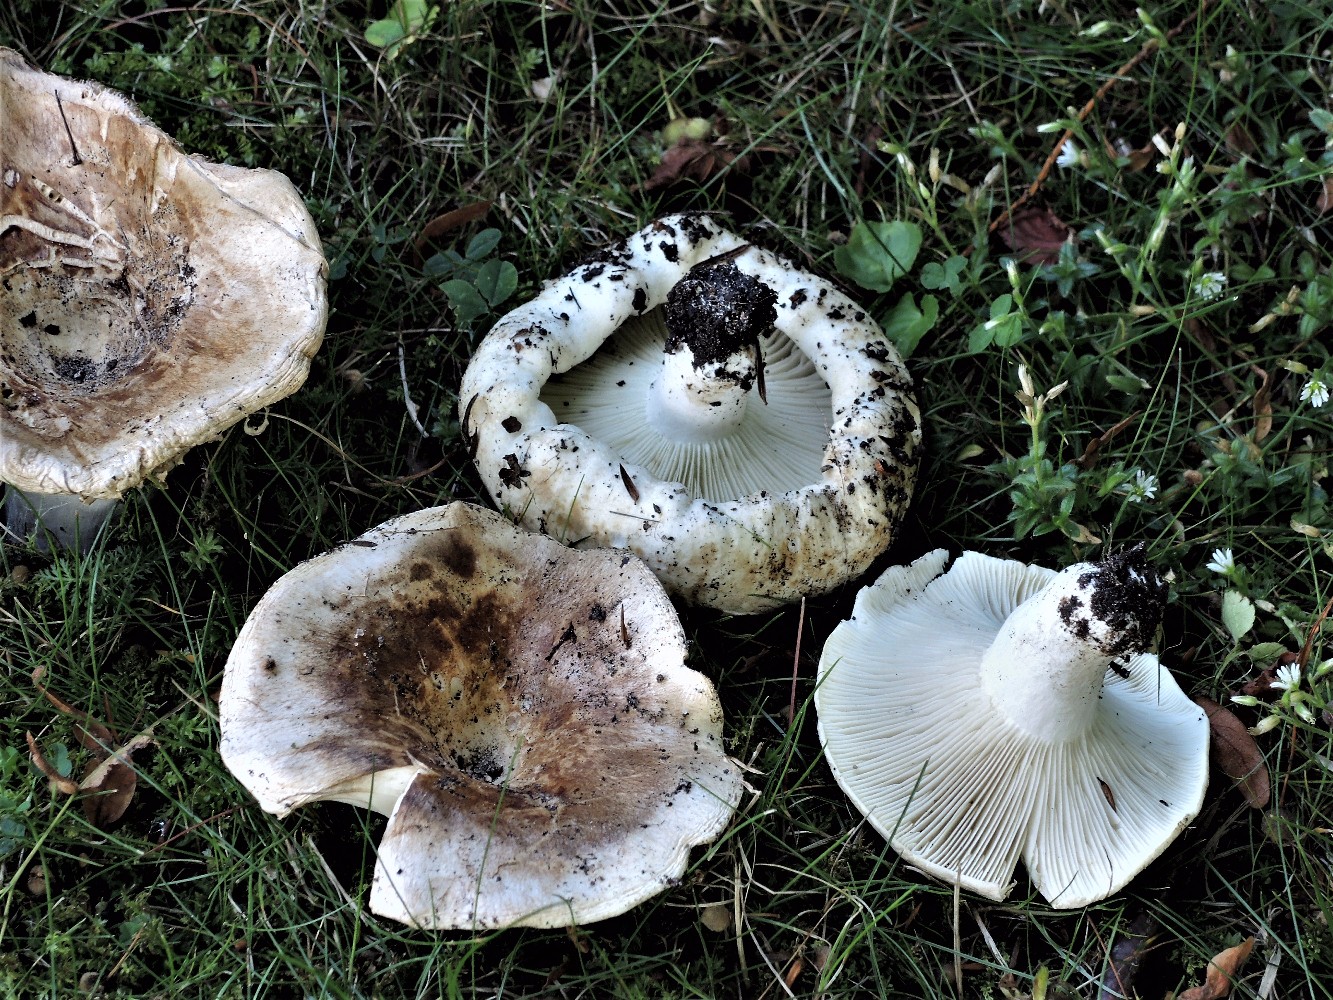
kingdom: Fungi
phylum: Basidiomycota
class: Agaricomycetes
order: Russulales
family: Russulaceae
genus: Russula
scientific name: Russula chloroides
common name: grønhalset tragt-skørhat
